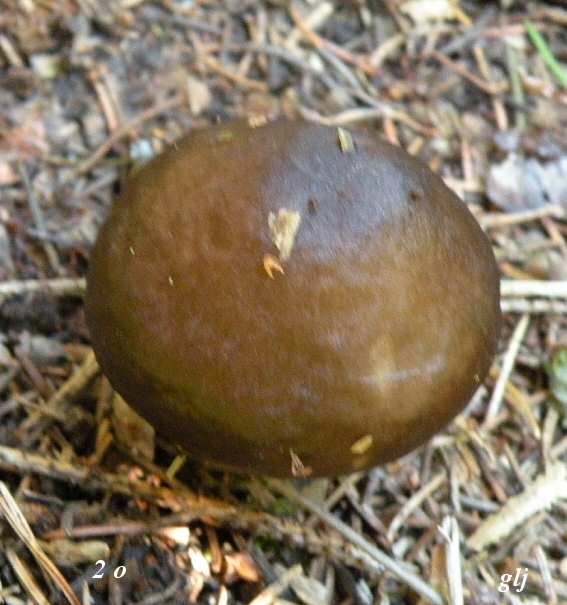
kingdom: Fungi
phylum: Basidiomycota
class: Agaricomycetes
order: Agaricales
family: Pluteaceae
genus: Pluteus
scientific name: Pluteus cervinus
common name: sodfarvet skærmhat
